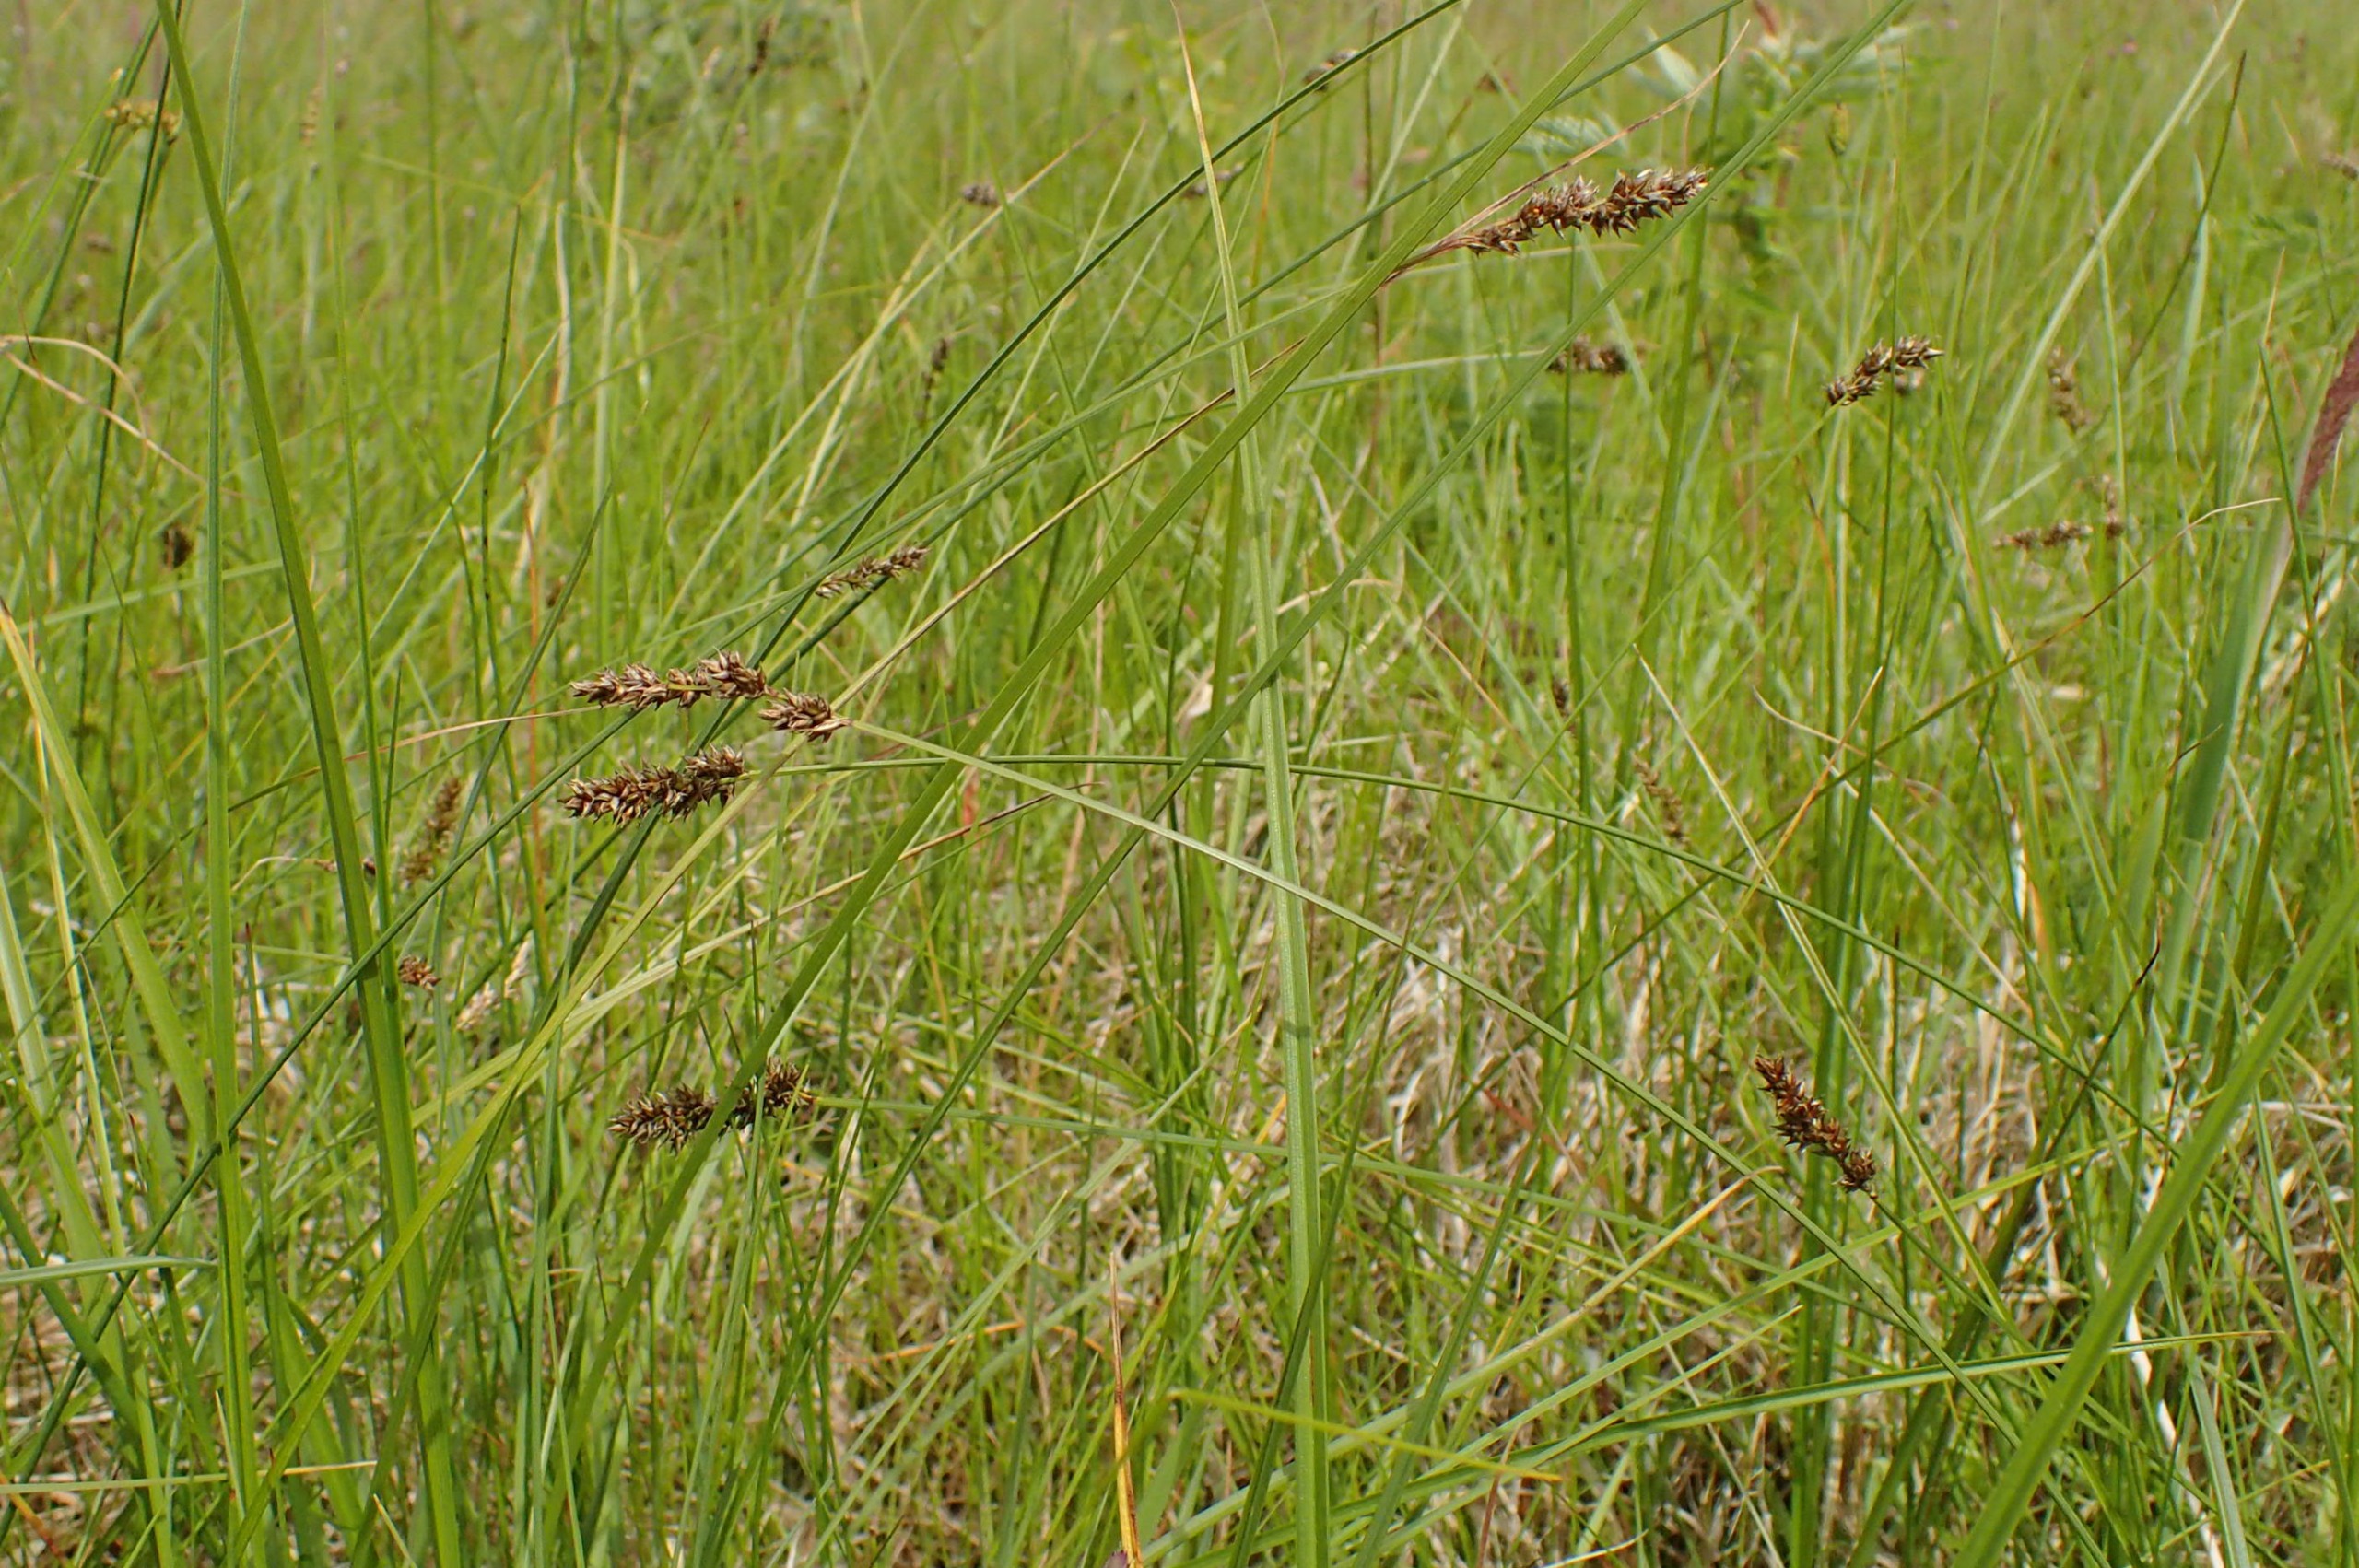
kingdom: Plantae
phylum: Tracheophyta
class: Liliopsida
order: Poales
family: Cyperaceae
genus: Carex
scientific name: Carex diandra
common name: Trindstænglet star
